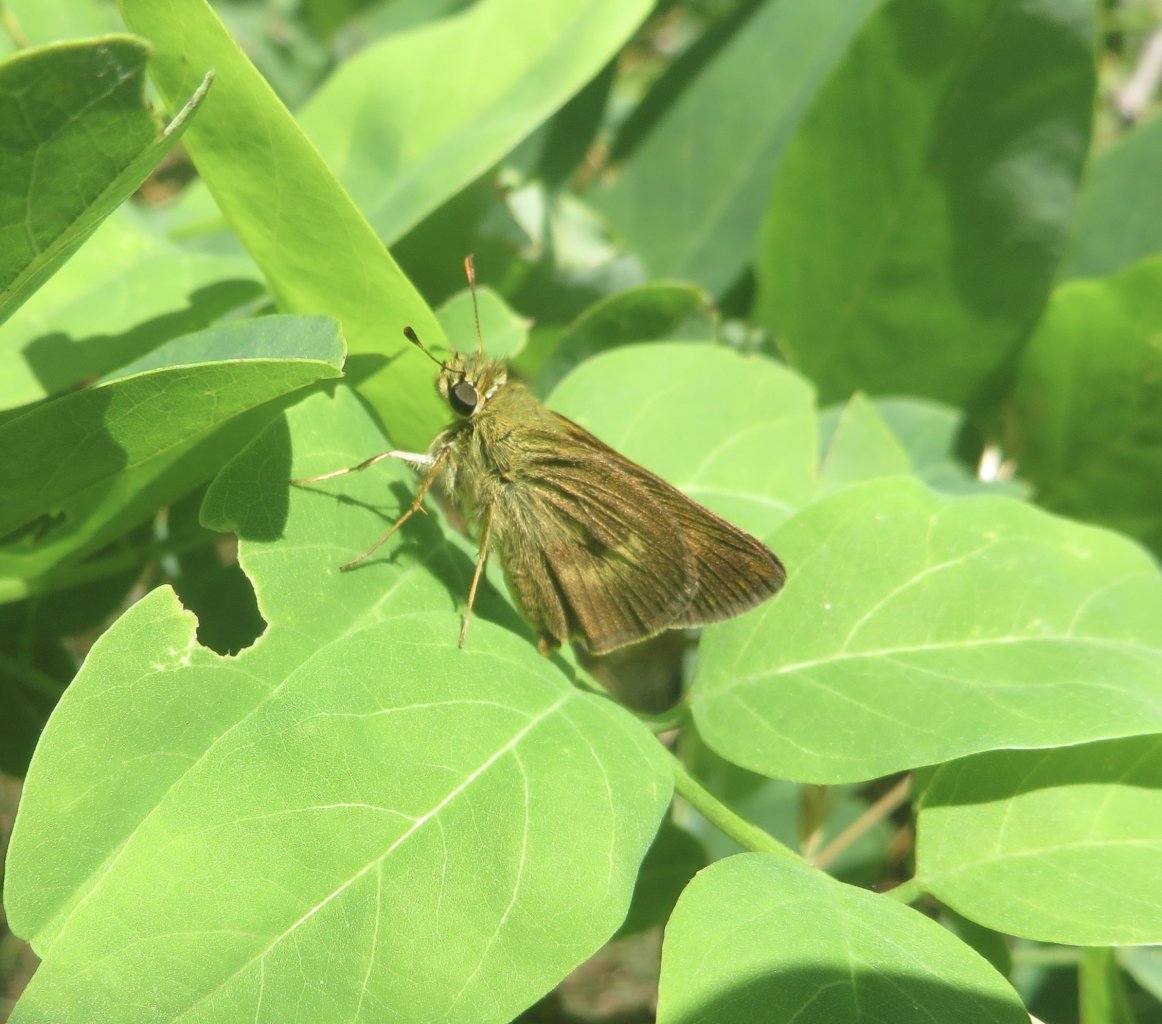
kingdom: Animalia
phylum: Arthropoda
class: Insecta
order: Lepidoptera
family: Hesperiidae
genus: Polites
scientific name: Polites egeremet
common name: Northern Broken-Dash
